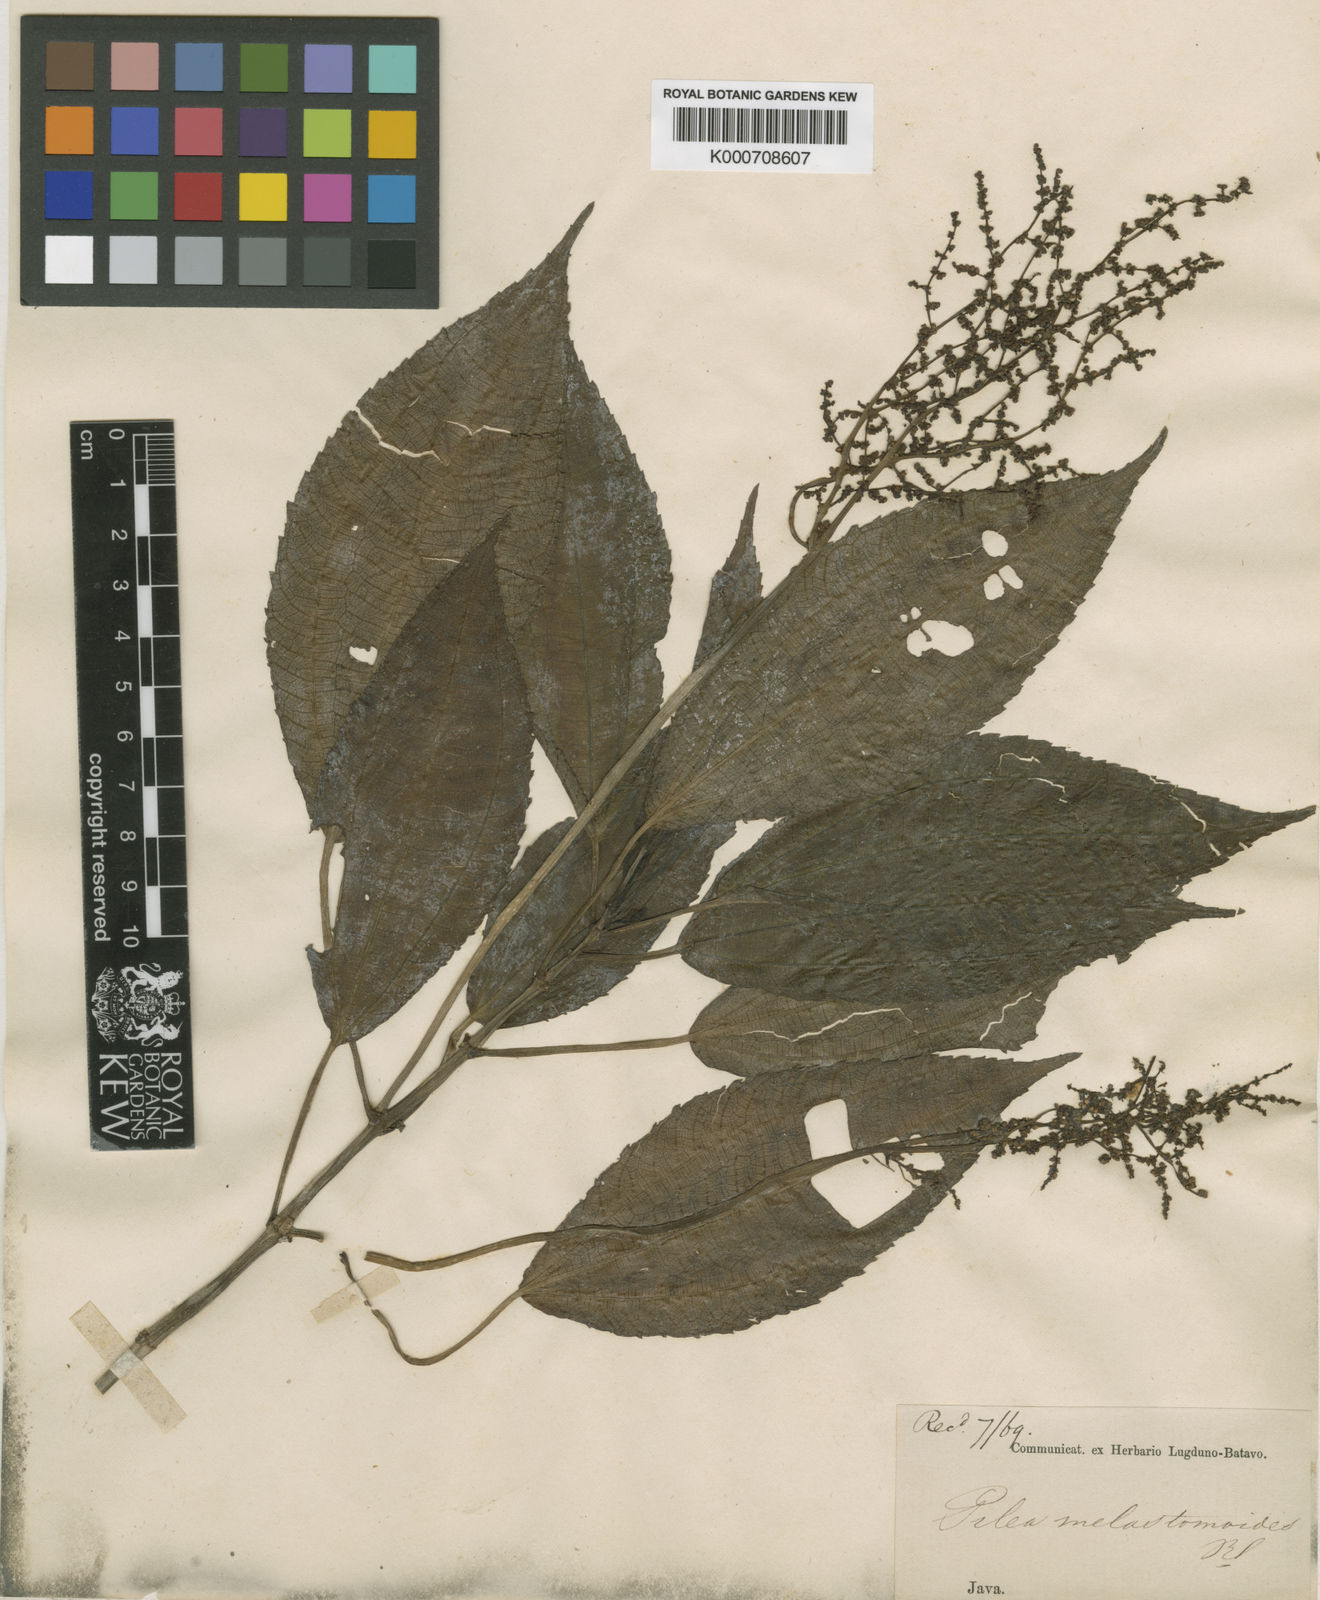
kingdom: Plantae
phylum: Tracheophyta
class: Magnoliopsida
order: Rosales
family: Urticaceae
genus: Pilea
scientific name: Pilea
